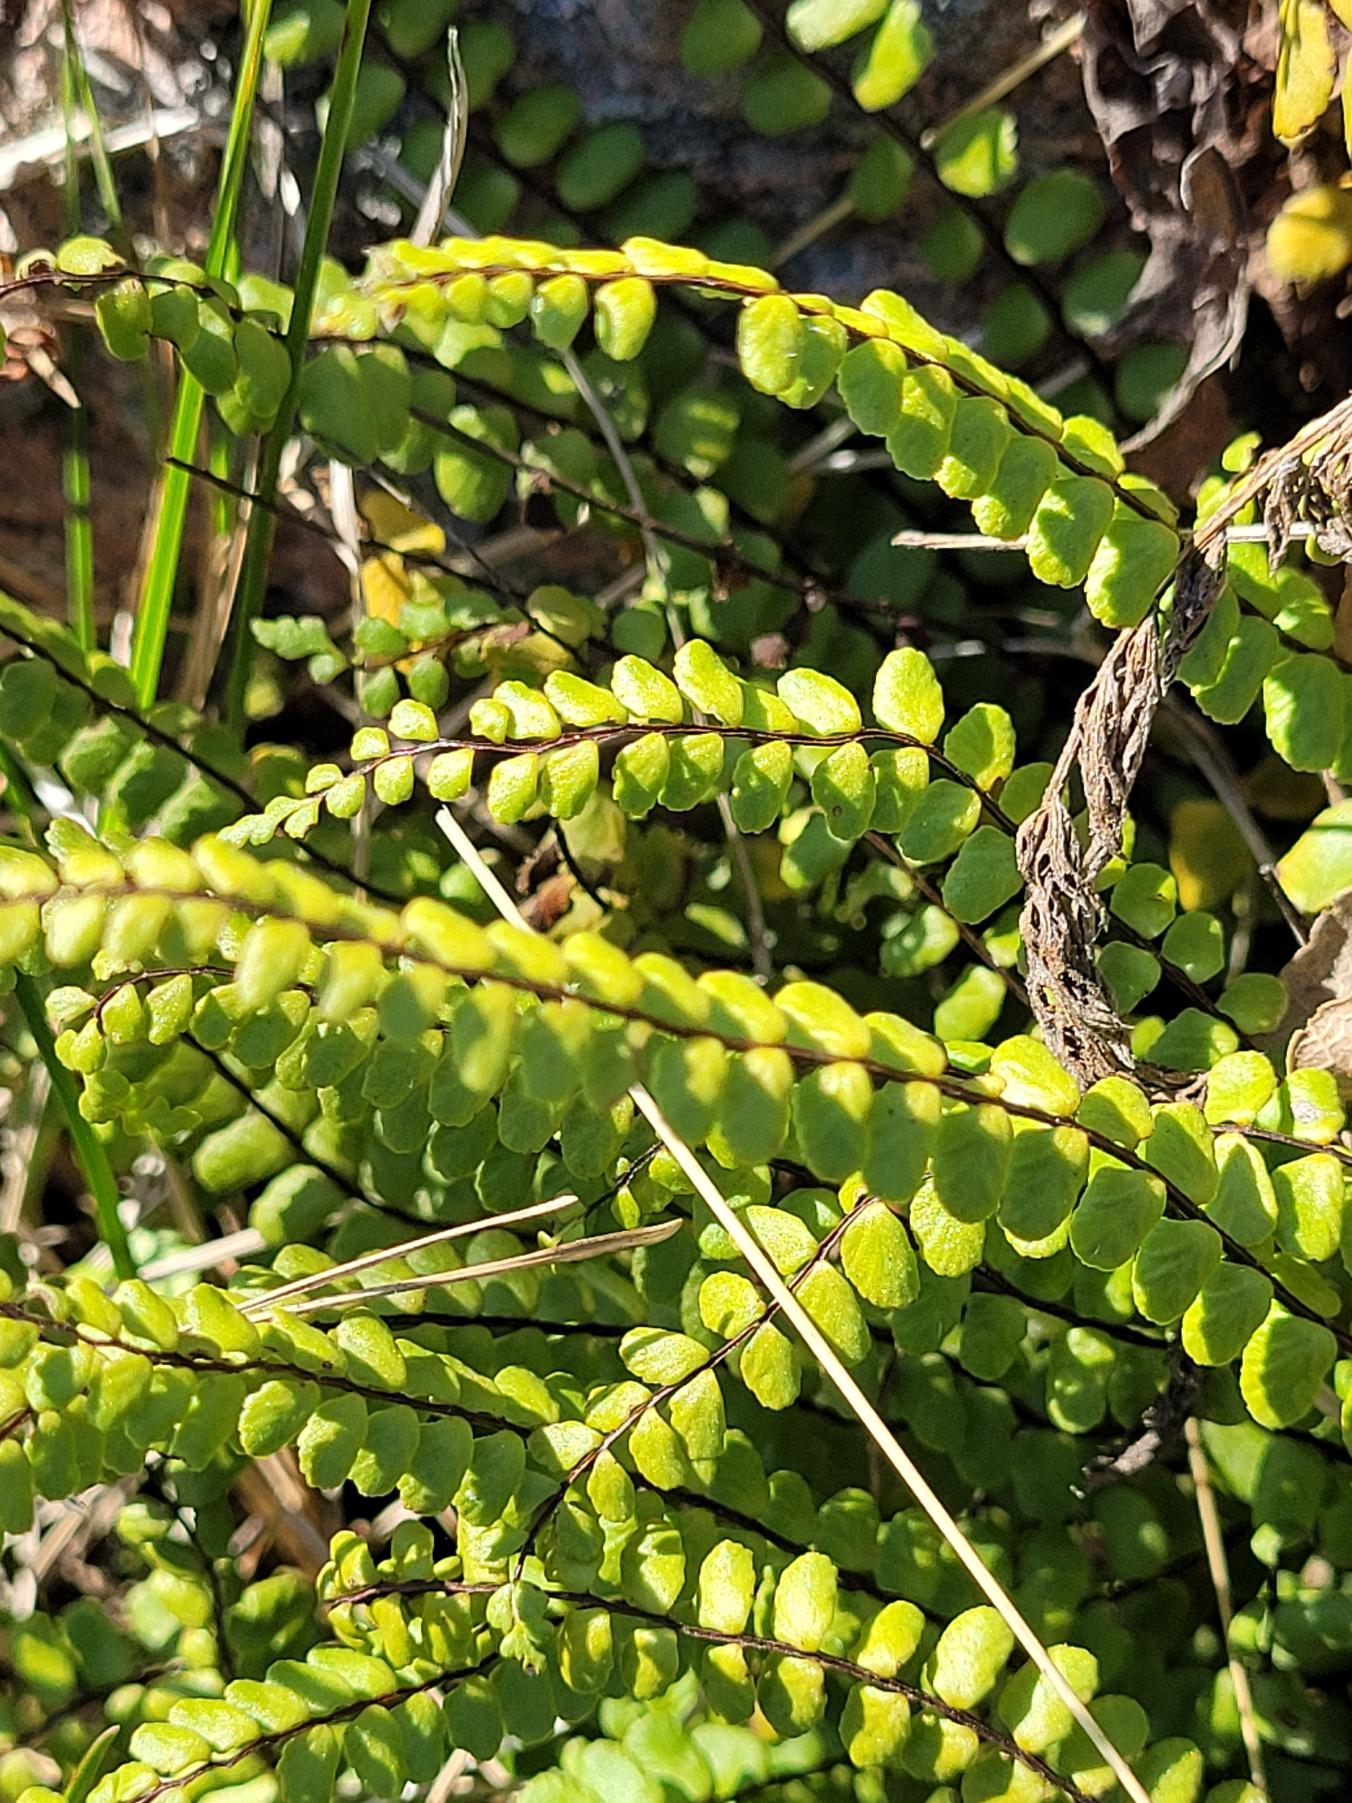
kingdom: Plantae
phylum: Tracheophyta
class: Polypodiopsida
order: Polypodiales
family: Aspleniaceae
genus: Asplenium
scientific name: Asplenium trichomanes
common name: Rundfinnet radeløv
